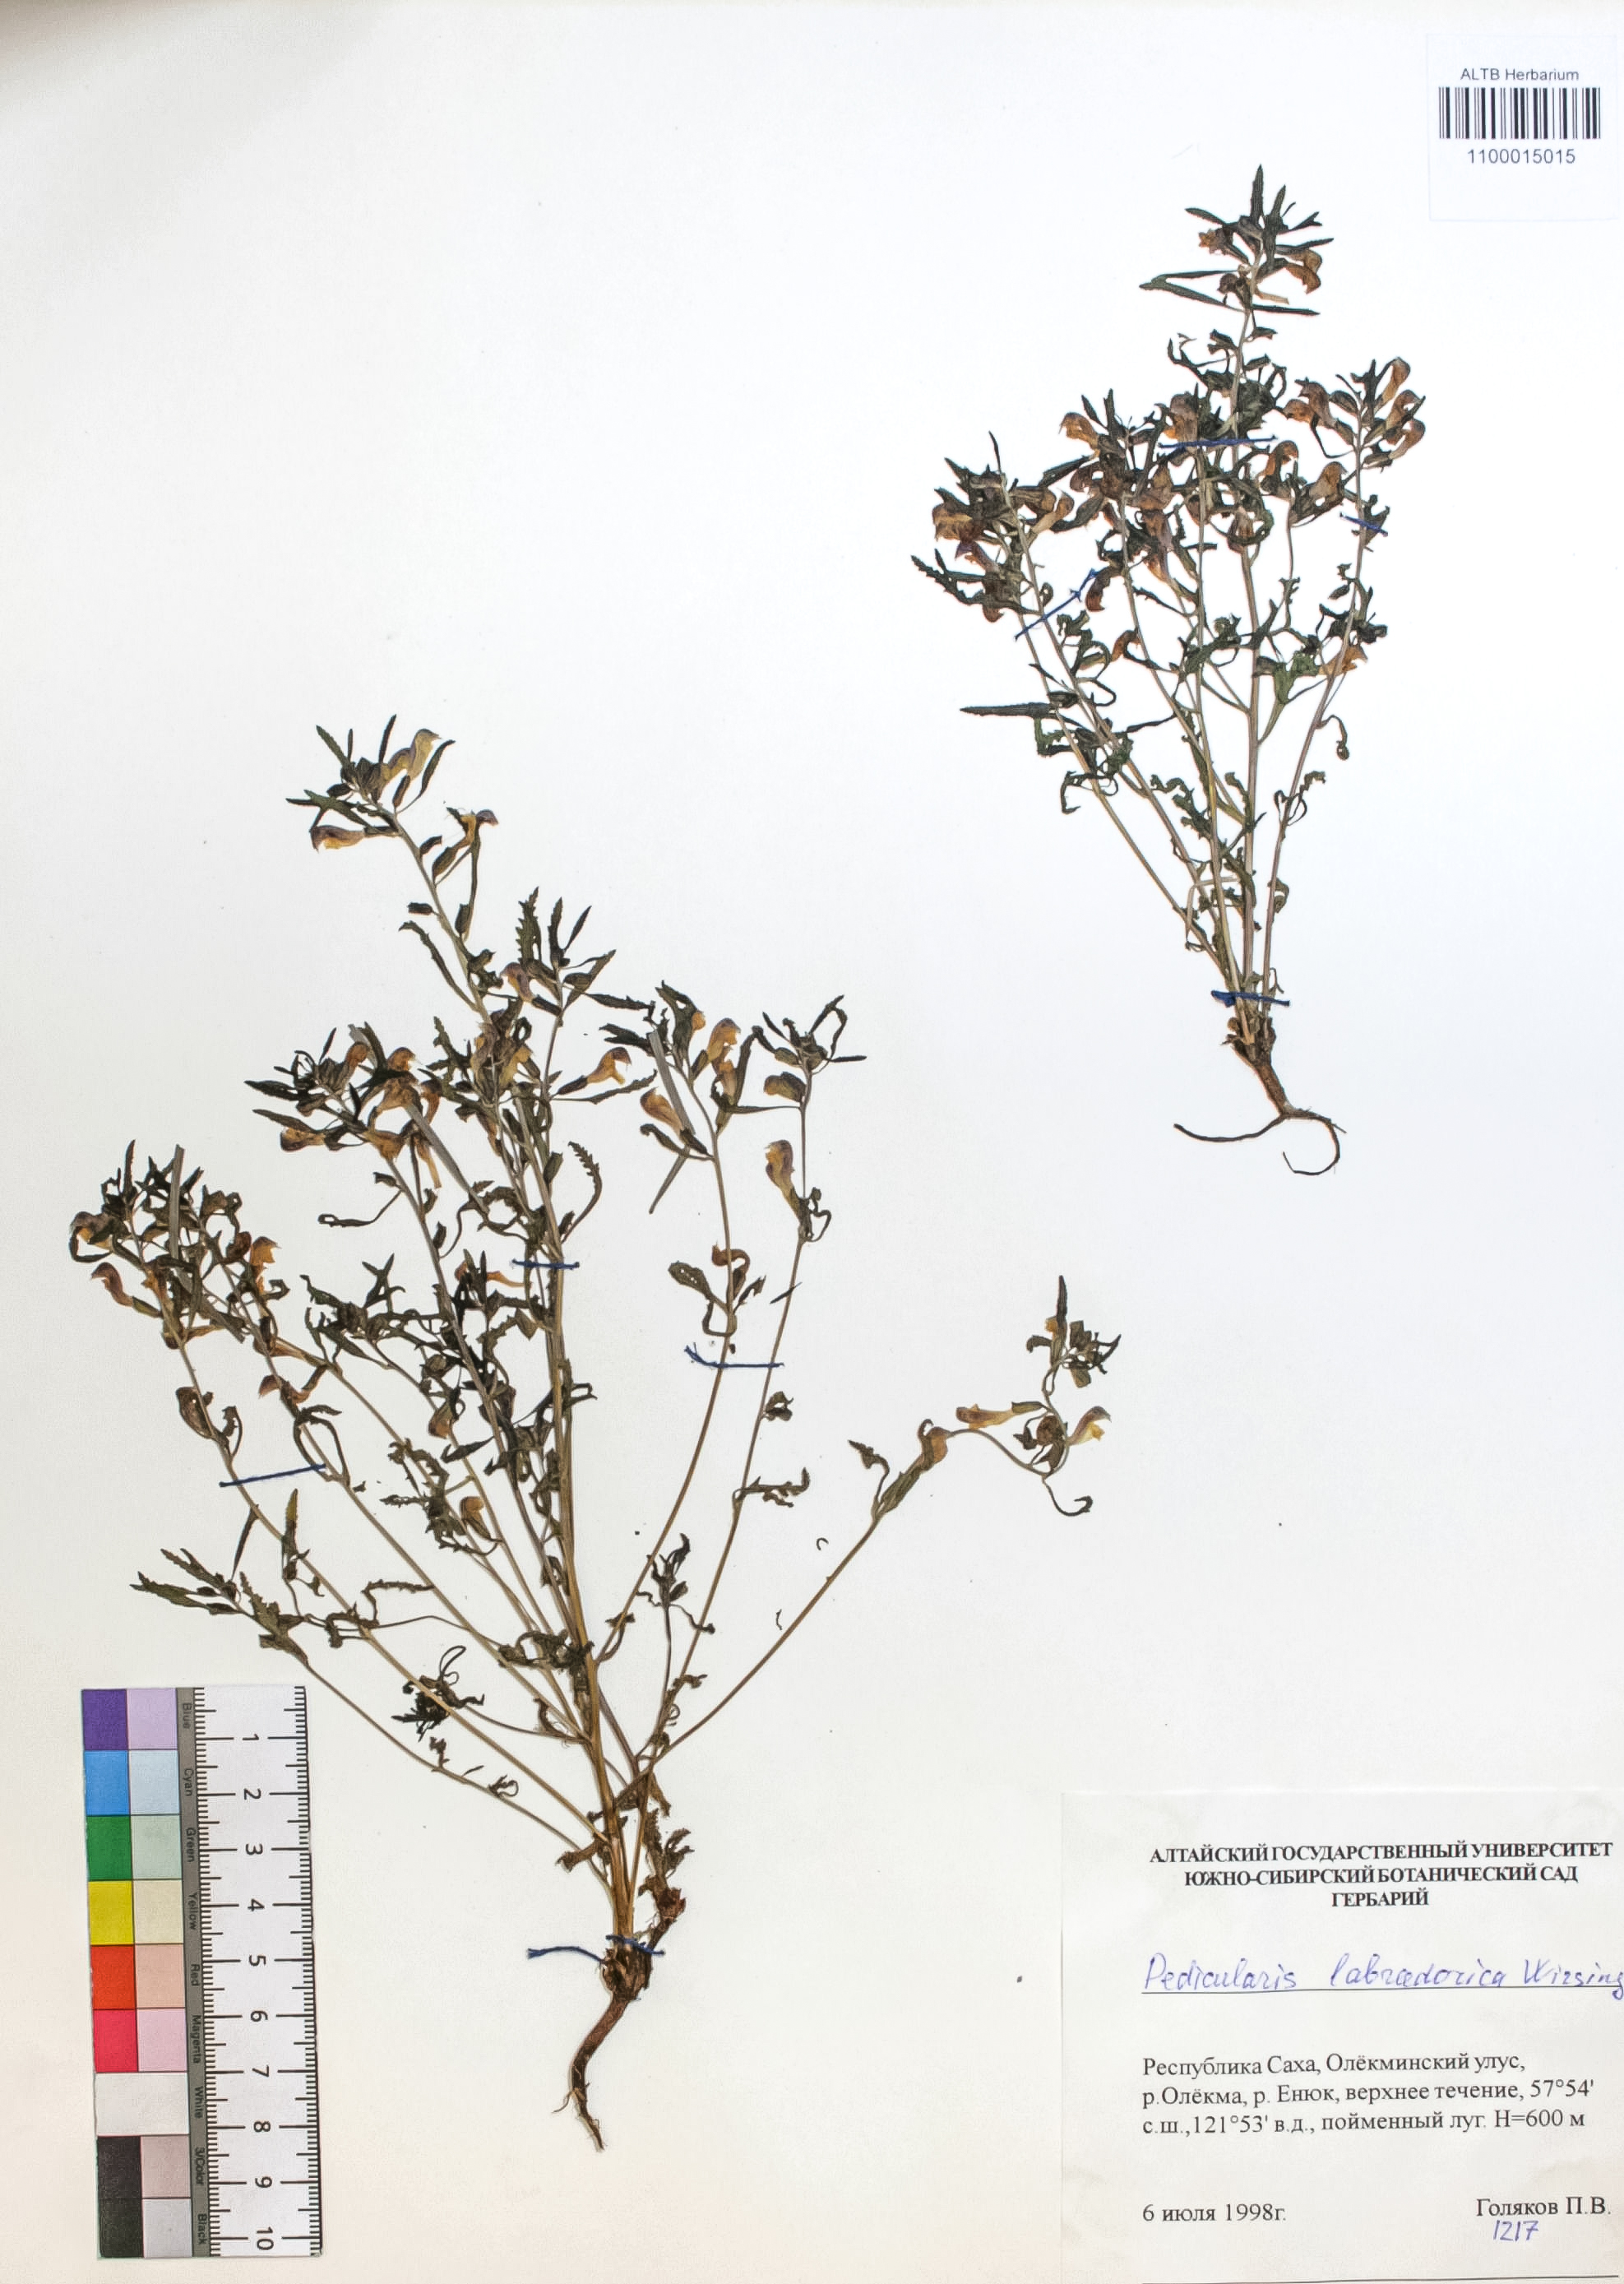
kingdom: Plantae
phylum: Tracheophyta
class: Magnoliopsida
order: Lamiales
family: Orobanchaceae
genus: Pedicularis
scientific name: Pedicularis labradorica
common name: Labrador lousewort
